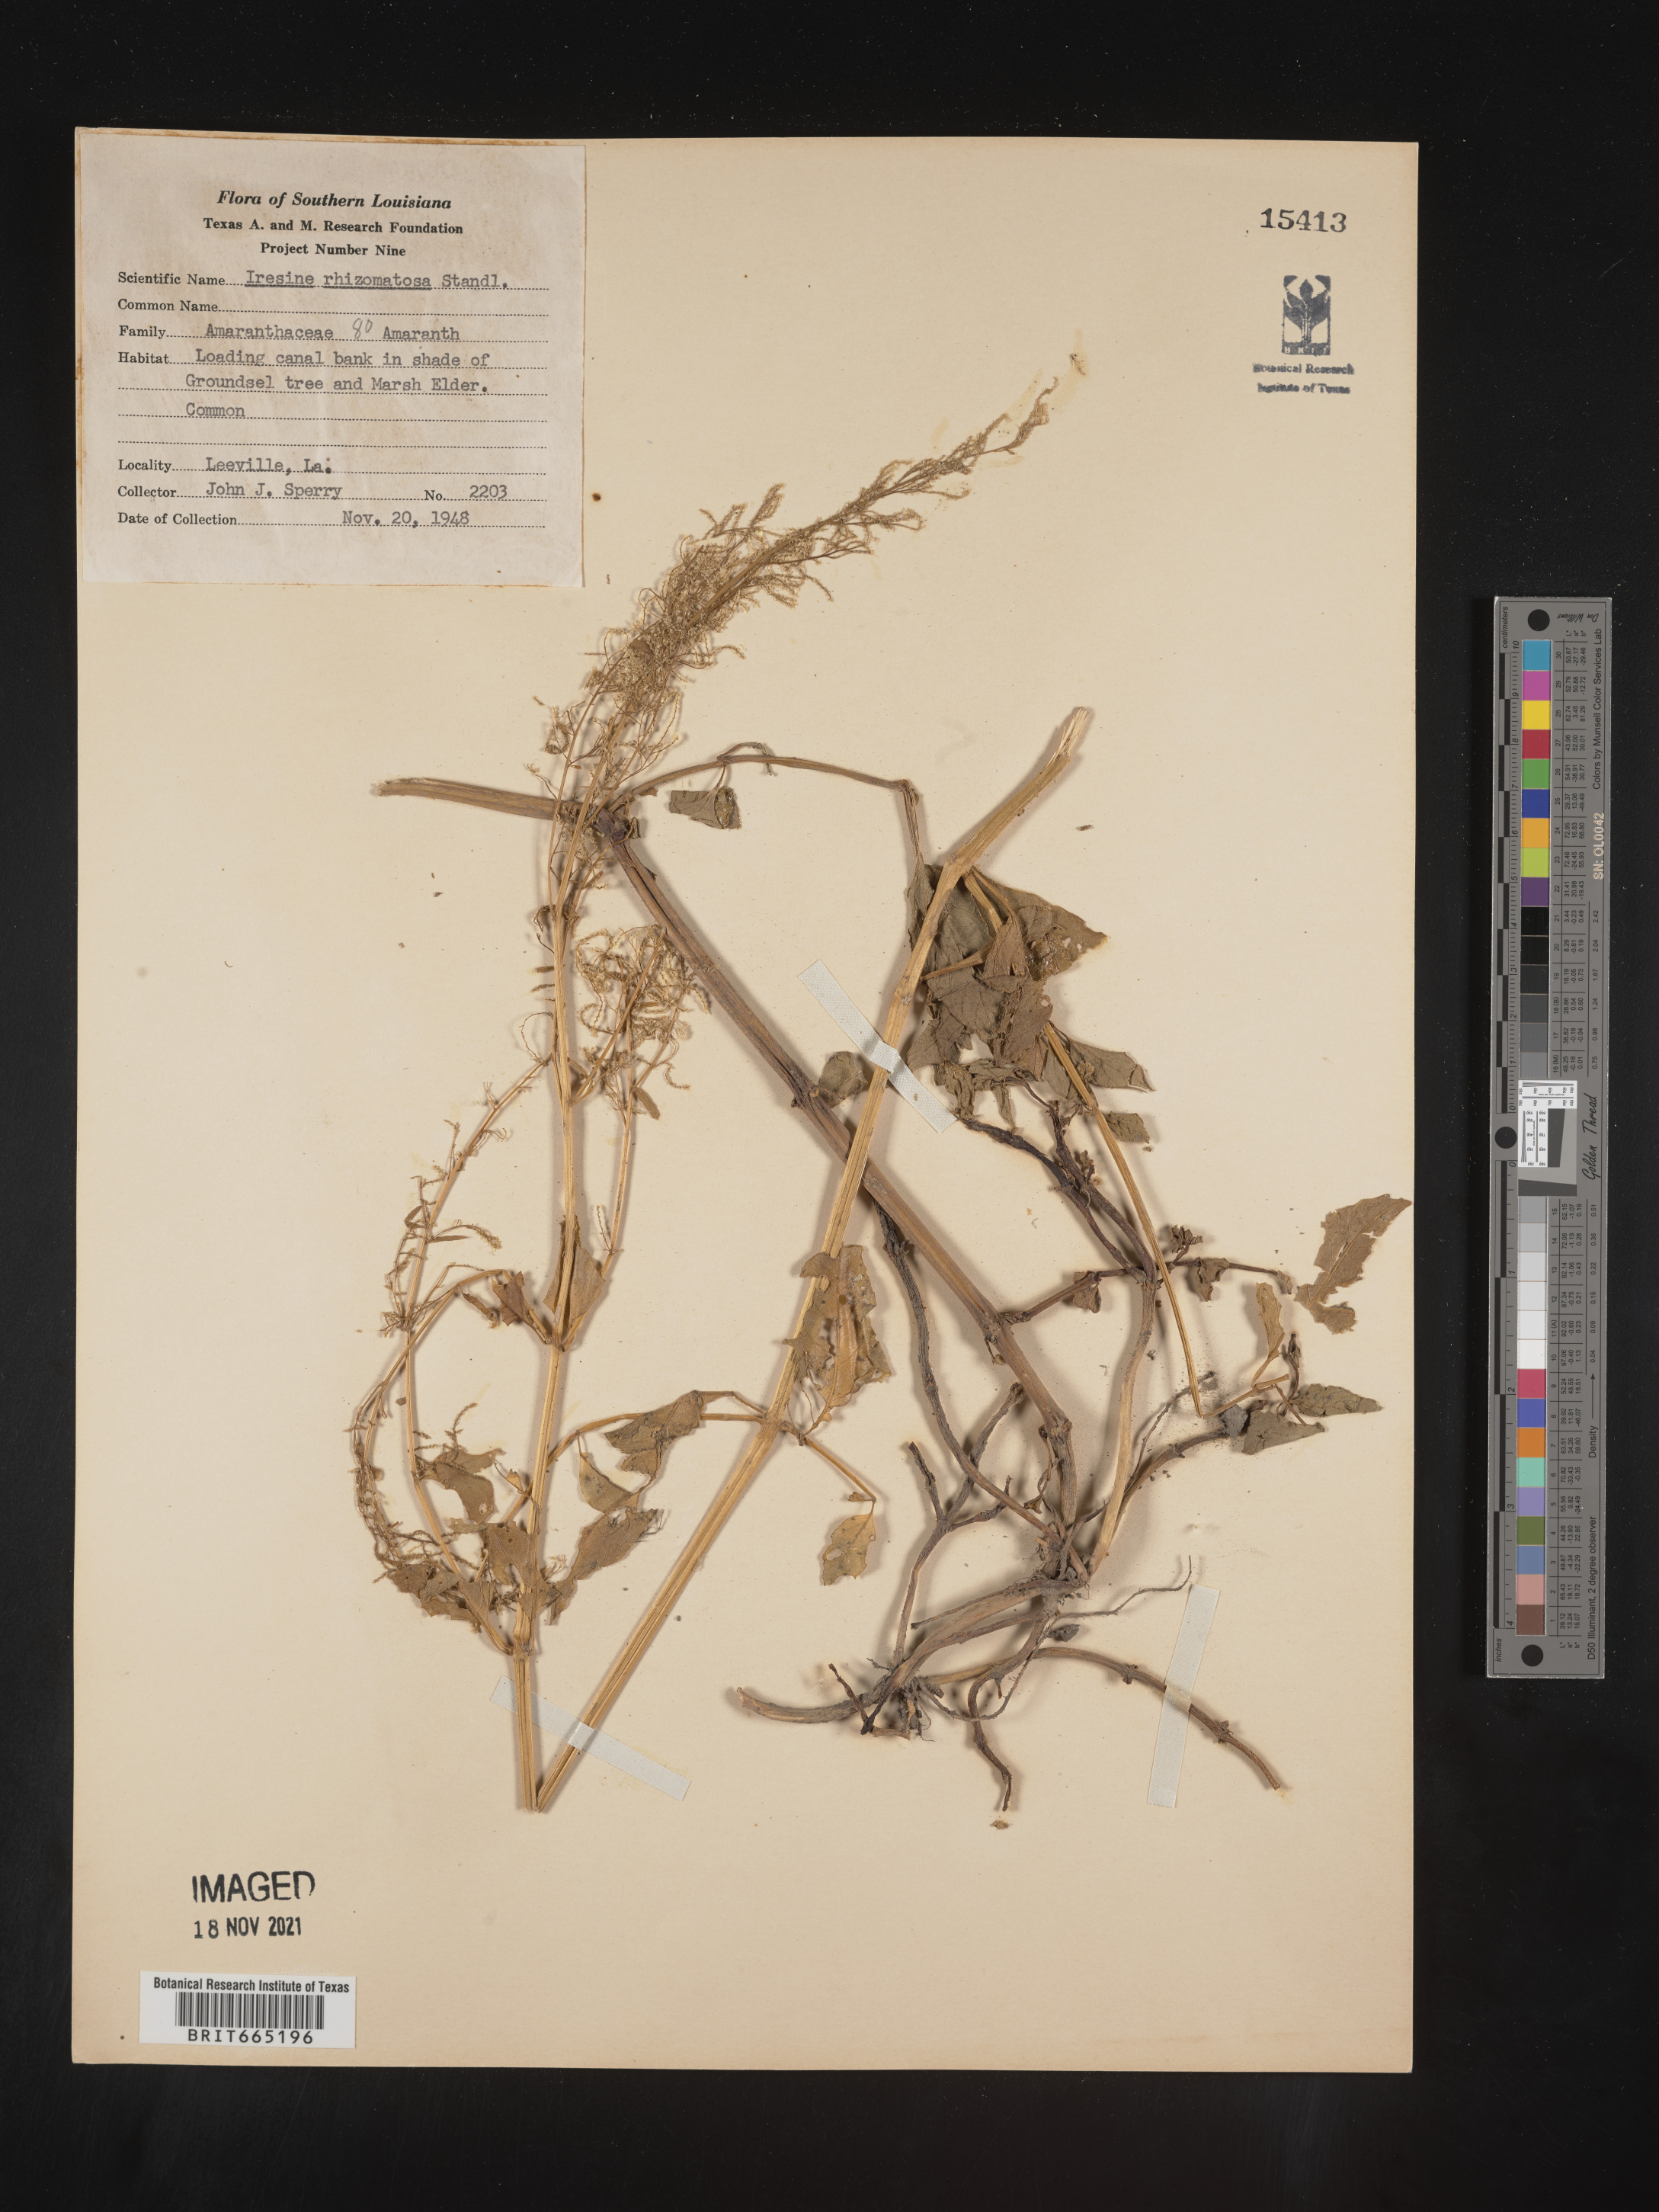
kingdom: Plantae
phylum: Tracheophyta
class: Magnoliopsida
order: Caryophyllales
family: Amaranthaceae
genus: Iresine
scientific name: Iresine rhizomatosa
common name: Juda's-bush
